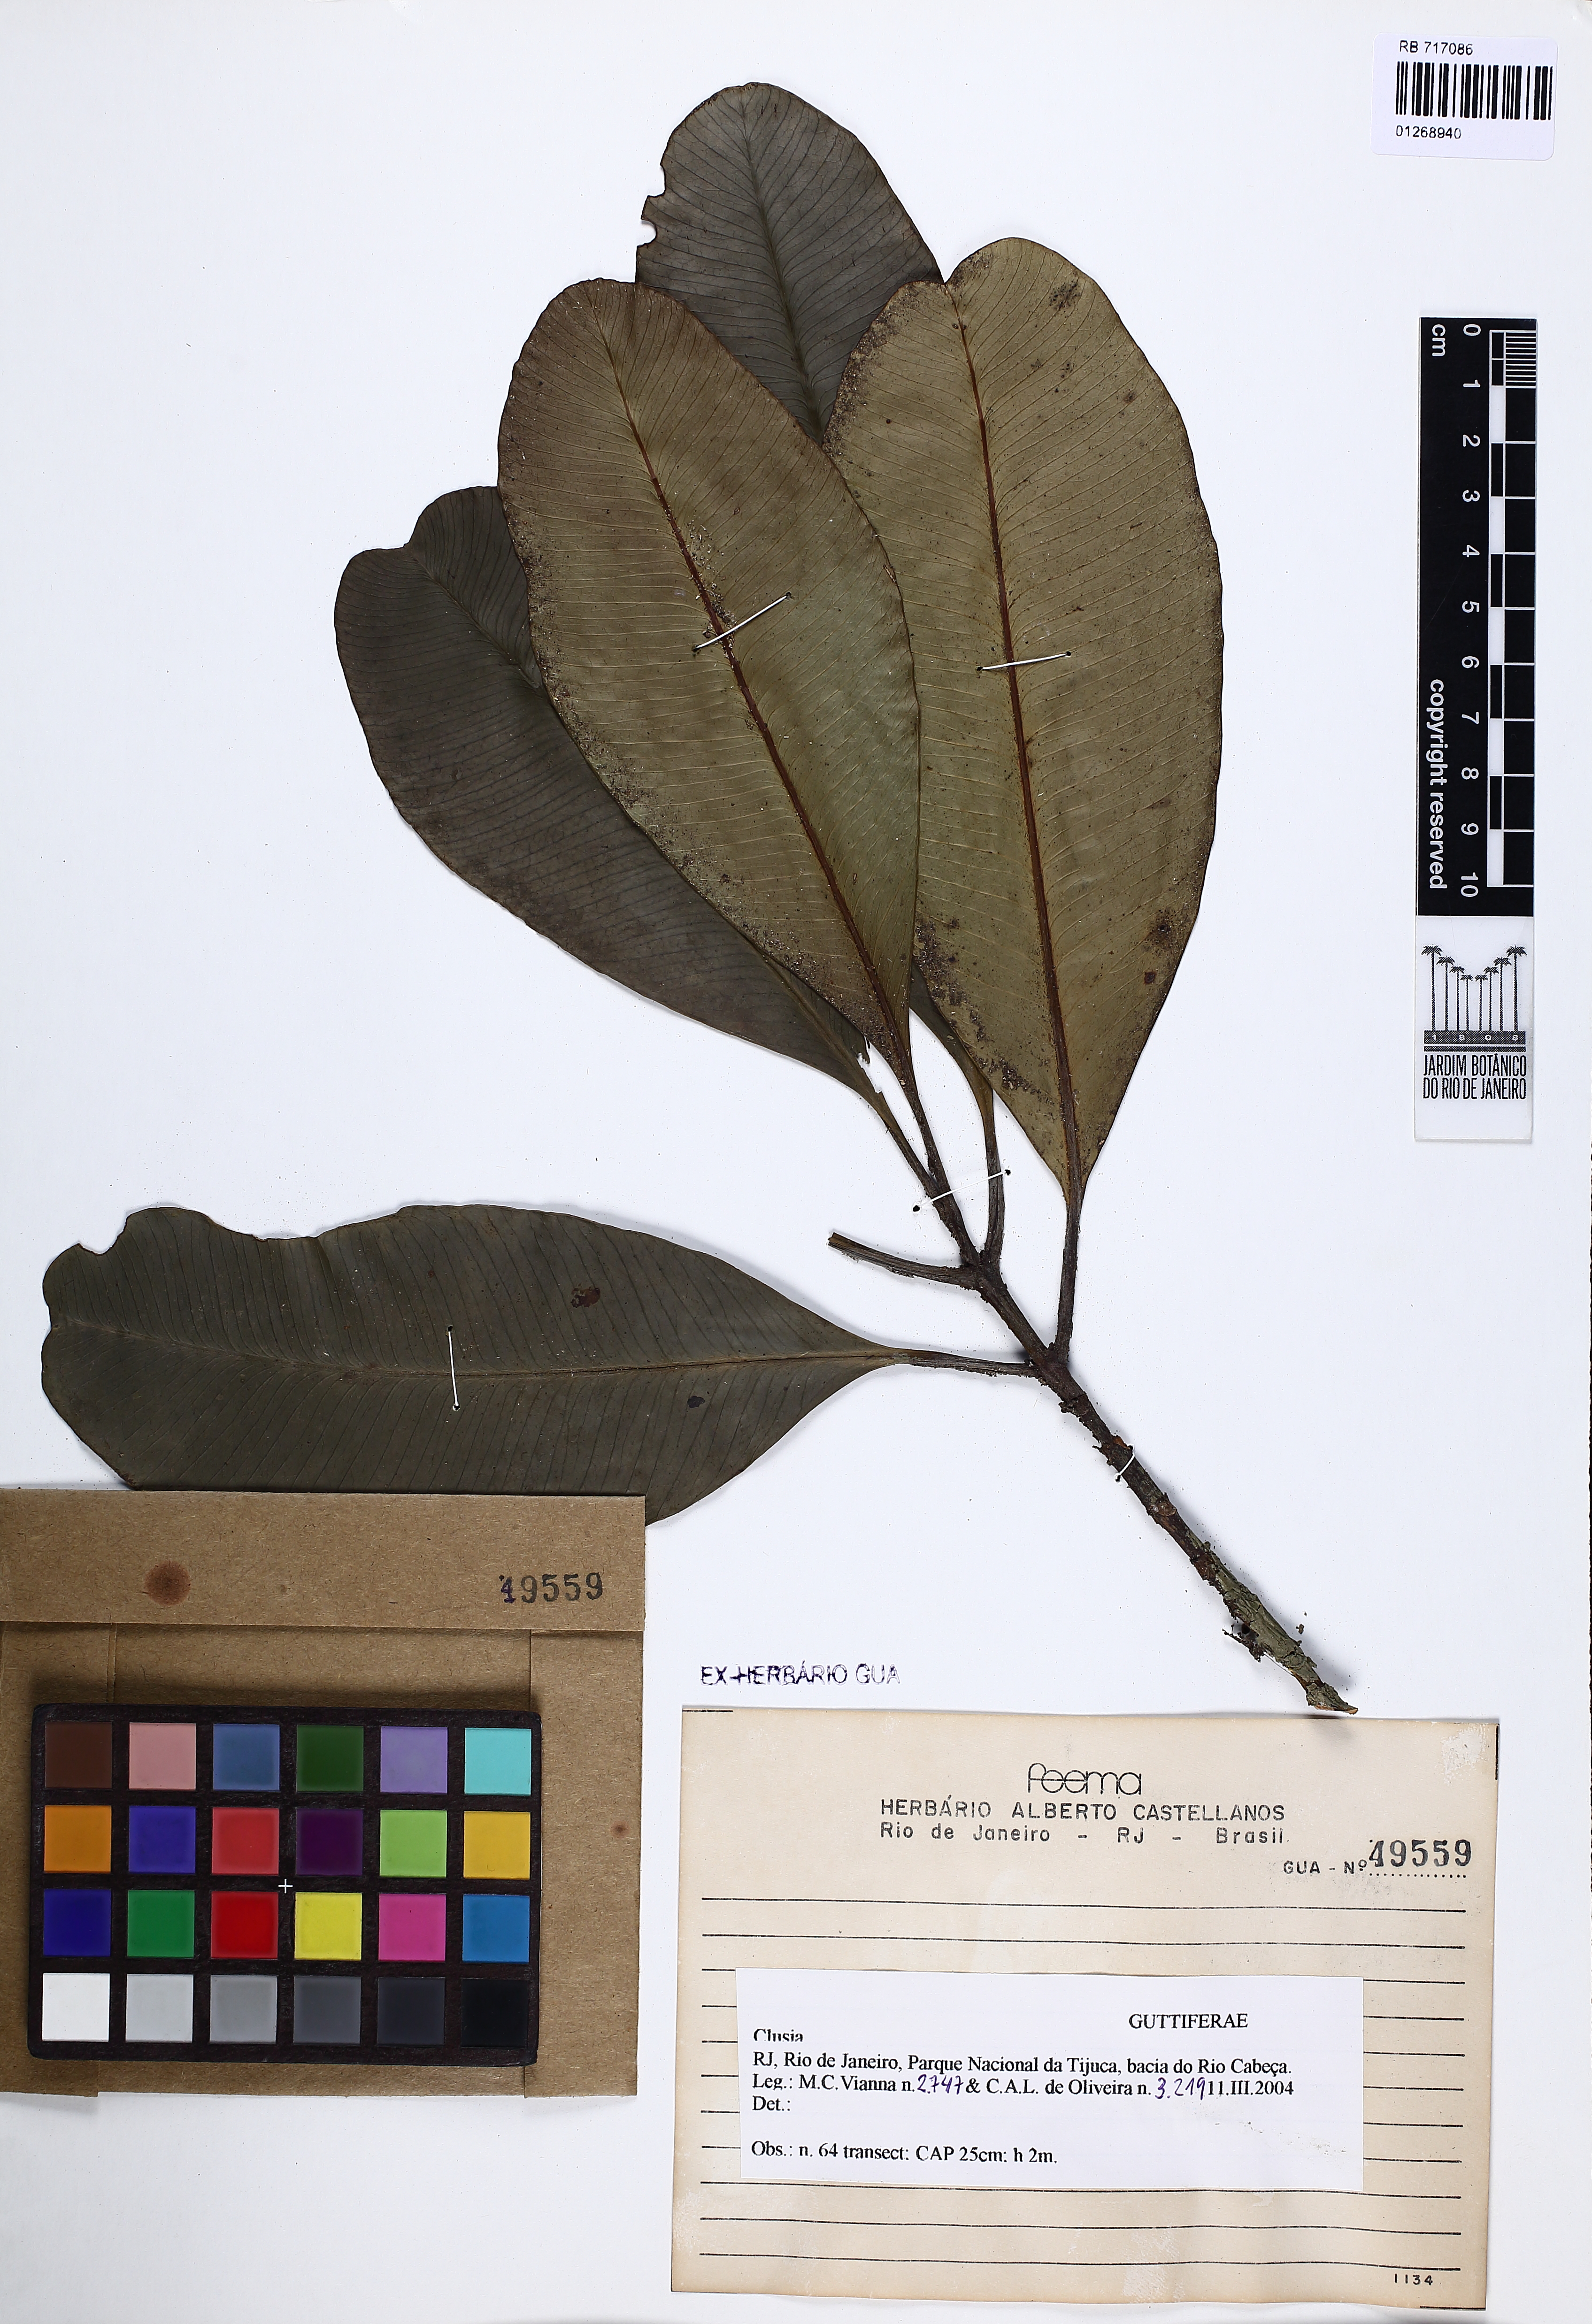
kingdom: Plantae
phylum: Tracheophyta
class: Magnoliopsida
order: Malpighiales
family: Clusiaceae
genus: Clusia
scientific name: Clusia
